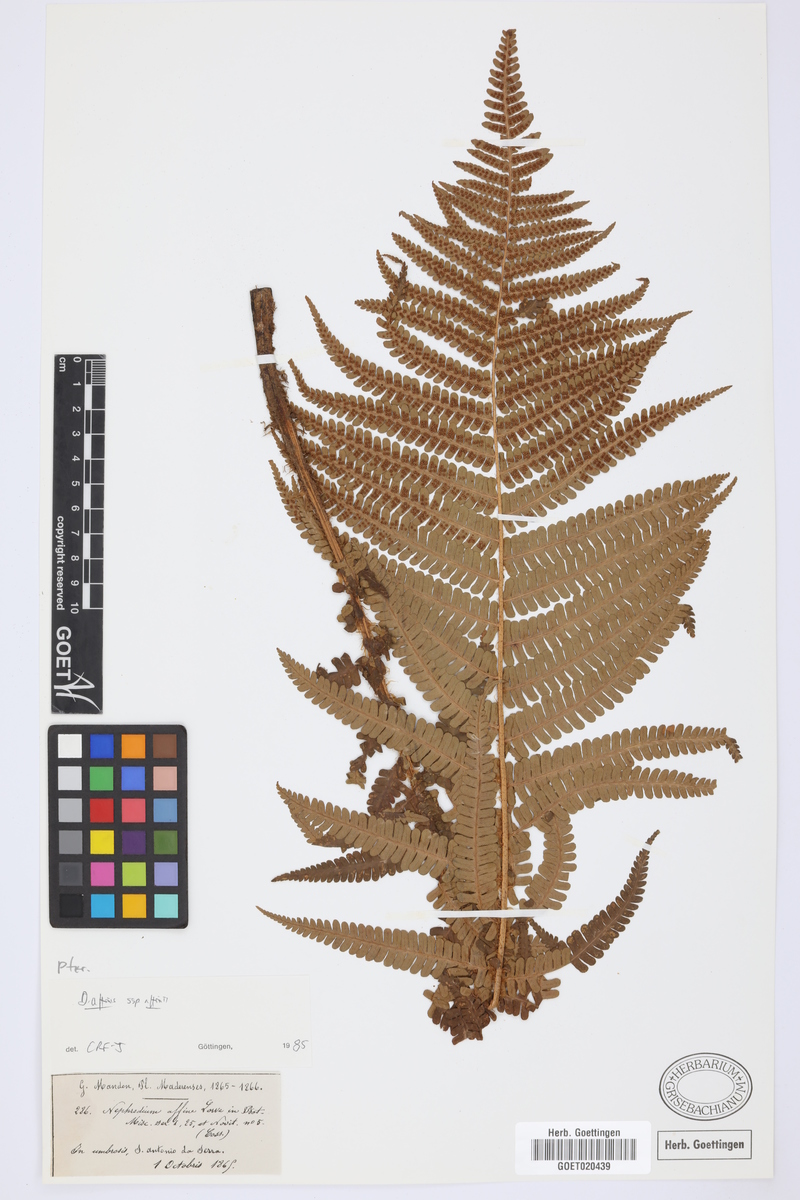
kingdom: Plantae
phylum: Tracheophyta
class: Polypodiopsida
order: Polypodiales
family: Dryopteridaceae
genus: Dryopteris
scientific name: Dryopteris affinis
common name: Scaly male fern
